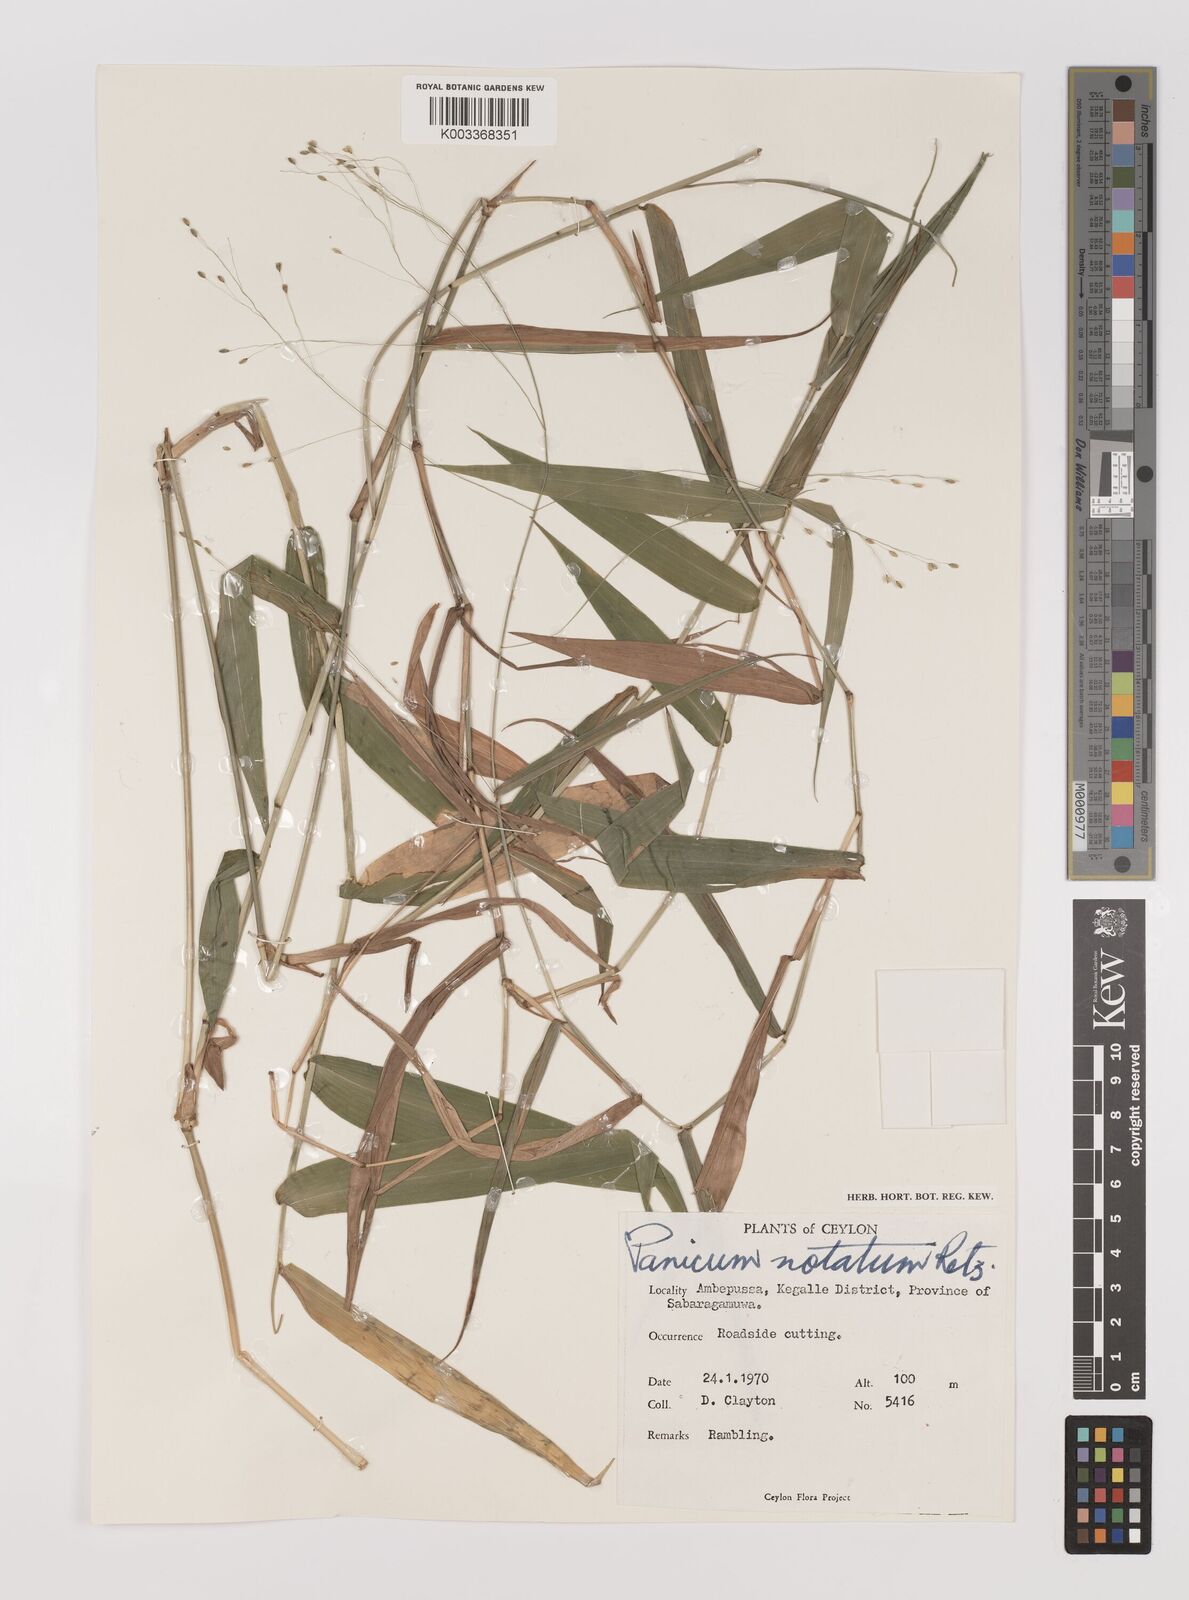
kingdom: Plantae
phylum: Tracheophyta
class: Liliopsida
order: Poales
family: Poaceae
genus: Panicum
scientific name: Panicum notatum
